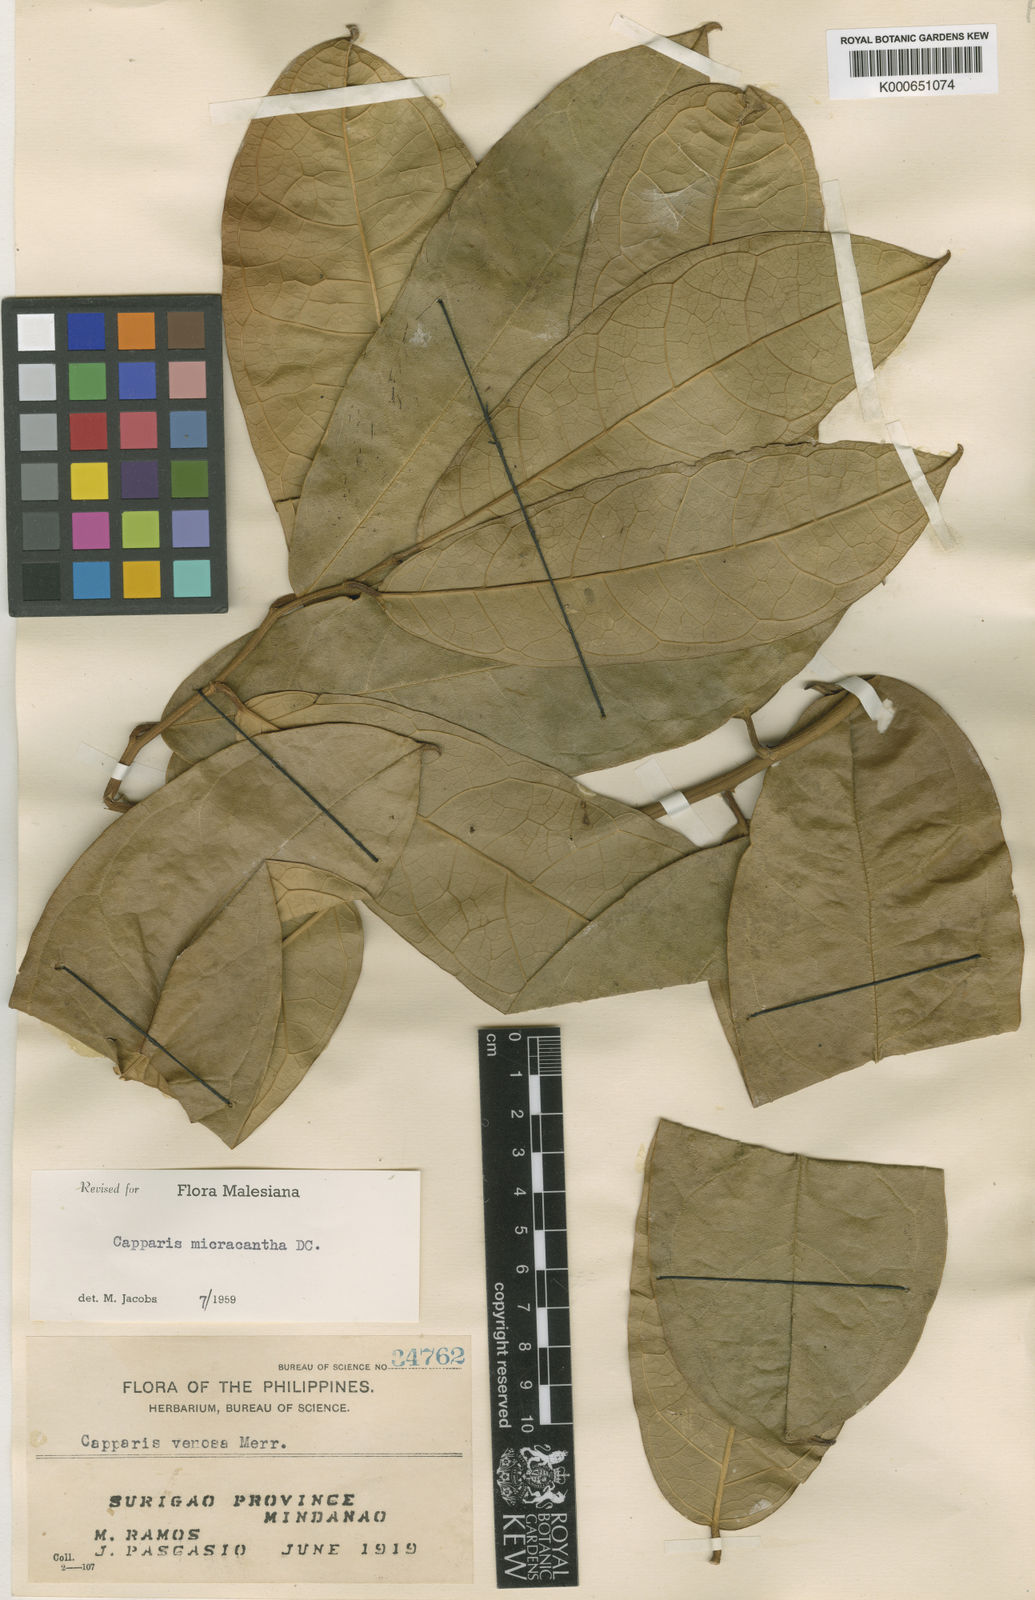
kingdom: Plantae
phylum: Tracheophyta
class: Magnoliopsida
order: Brassicales
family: Capparaceae
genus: Capparis
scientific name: Capparis micracantha
